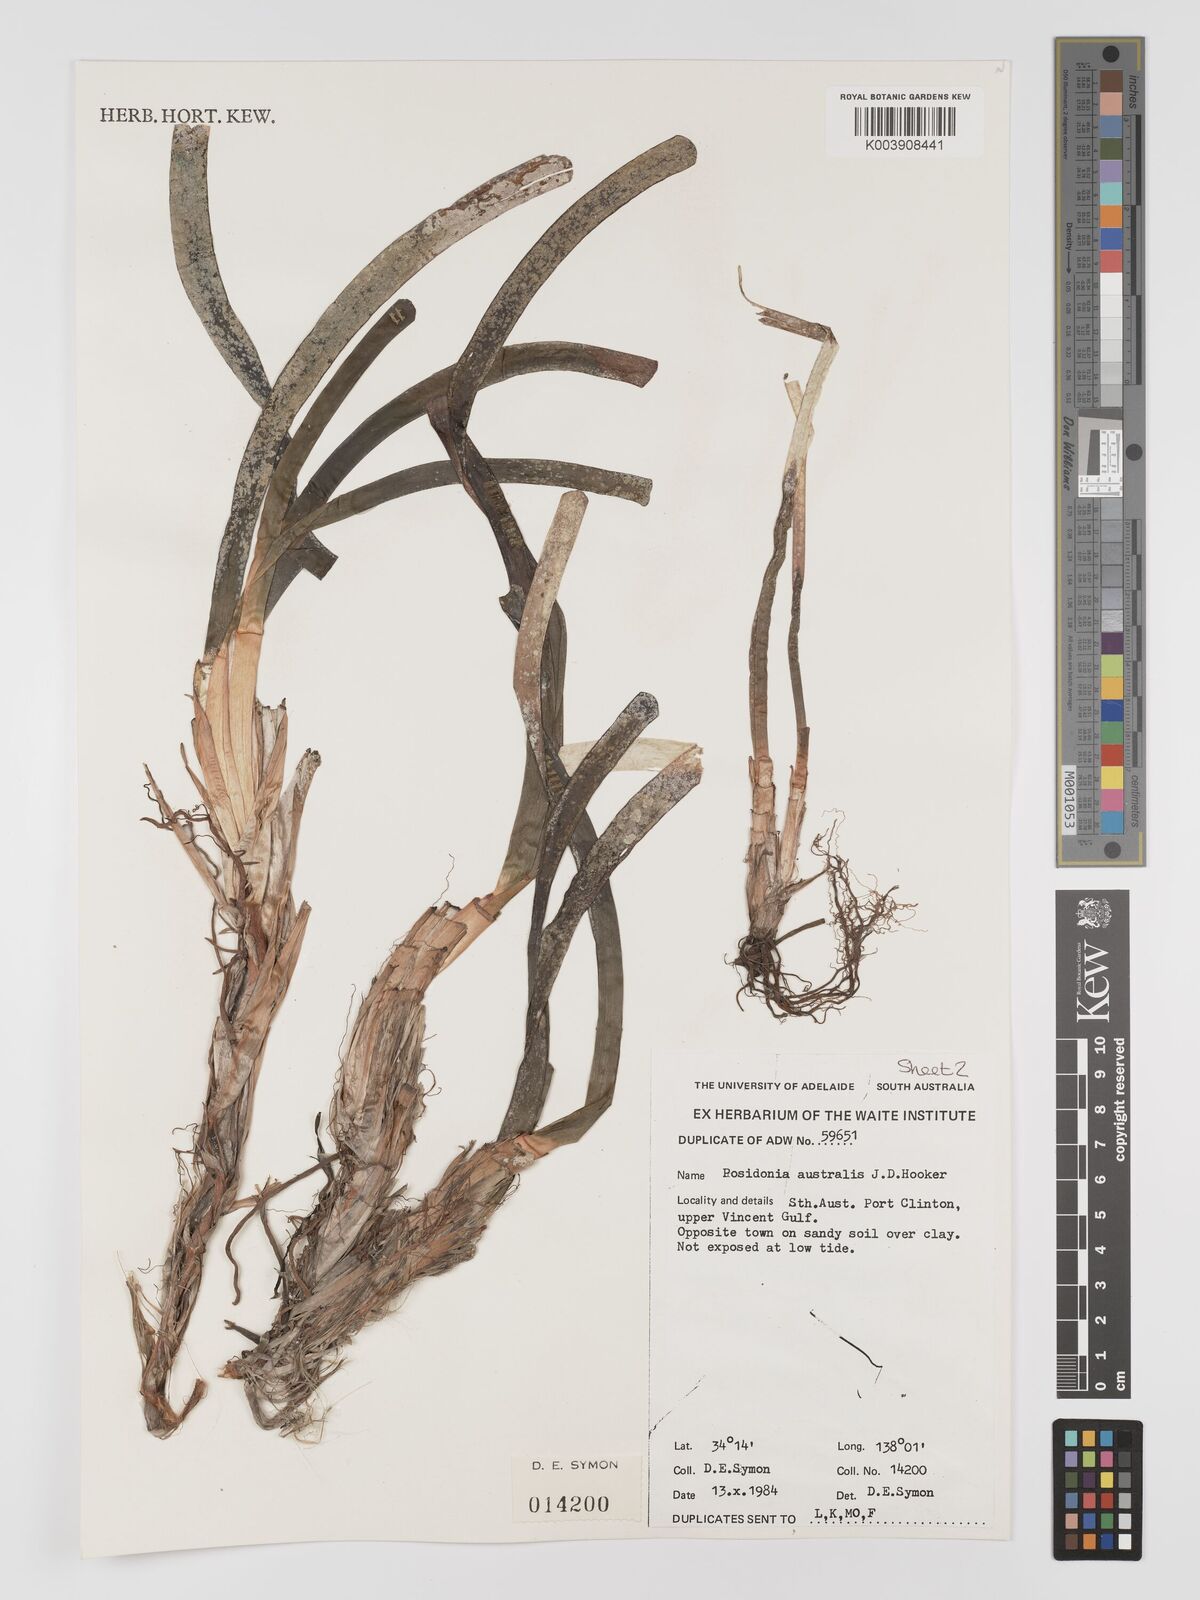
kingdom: Plantae
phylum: Tracheophyta
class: Liliopsida
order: Alismatales
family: Posidoniaceae
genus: Posidonia
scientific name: Posidonia australis
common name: Species code: pa
